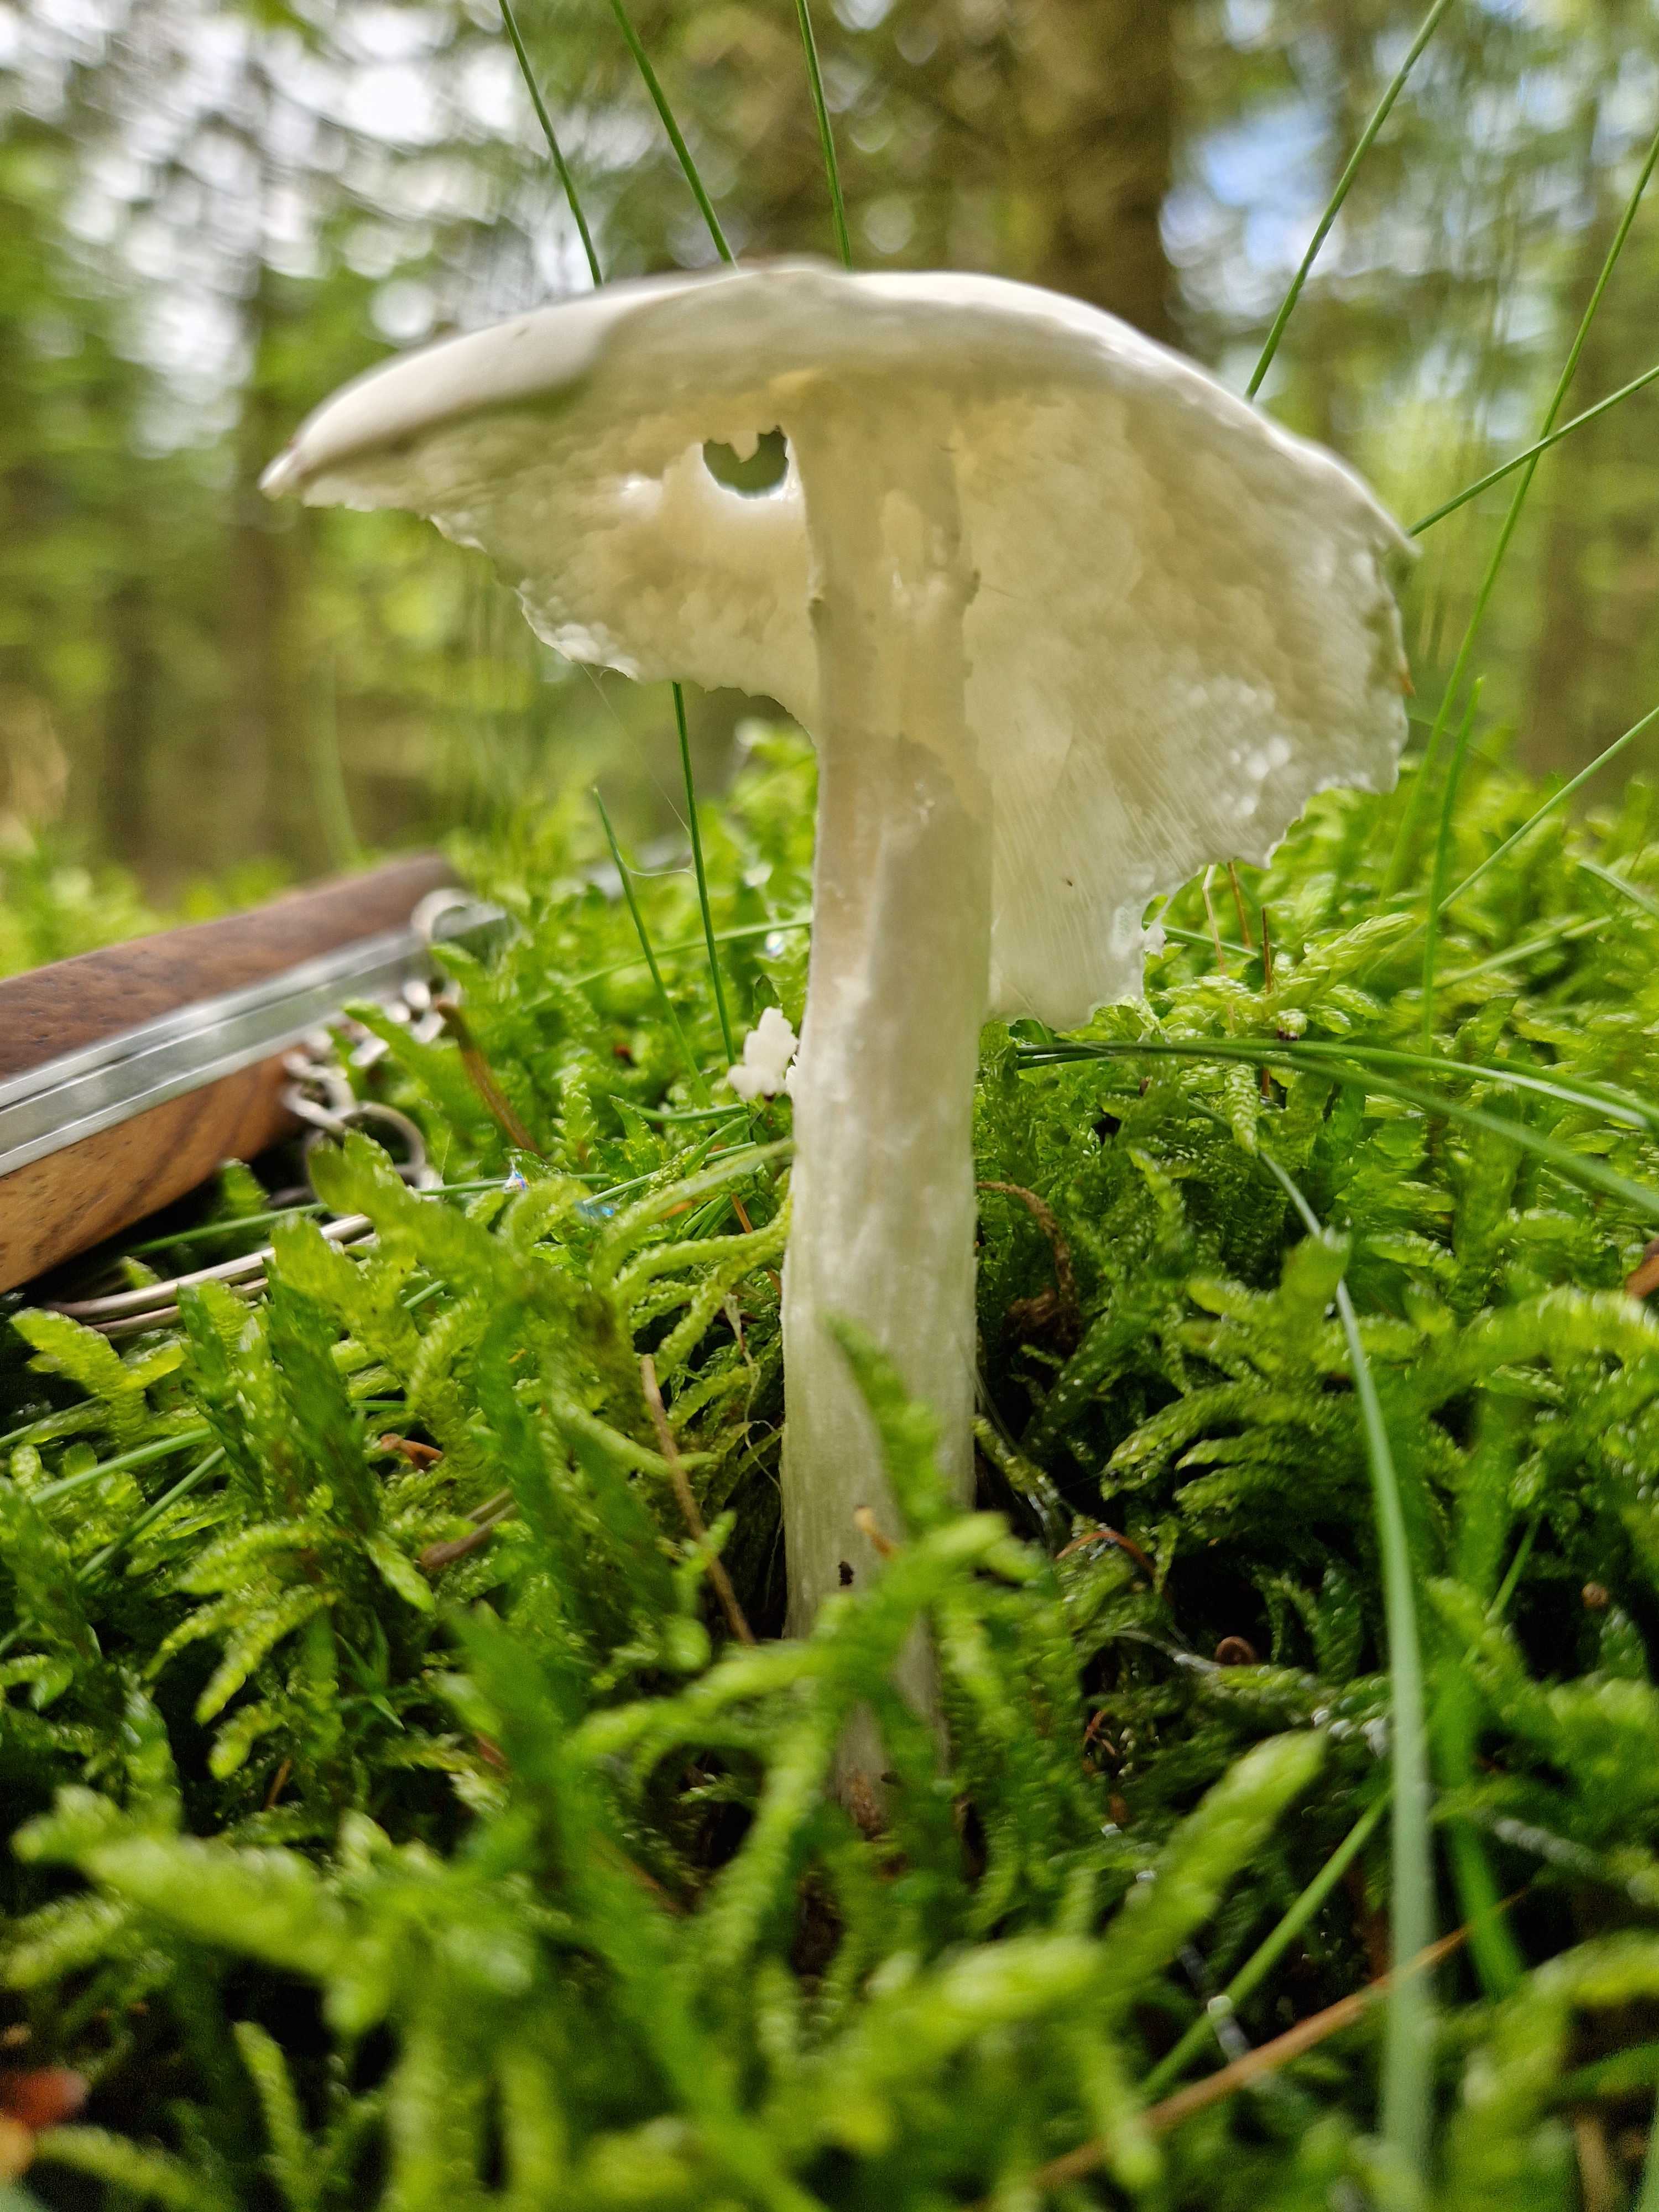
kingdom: Fungi
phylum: Basidiomycota
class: Agaricomycetes
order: Agaricales
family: Amanitaceae
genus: Amanita
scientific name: Amanita virosa
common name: snehvid fluesvamp
